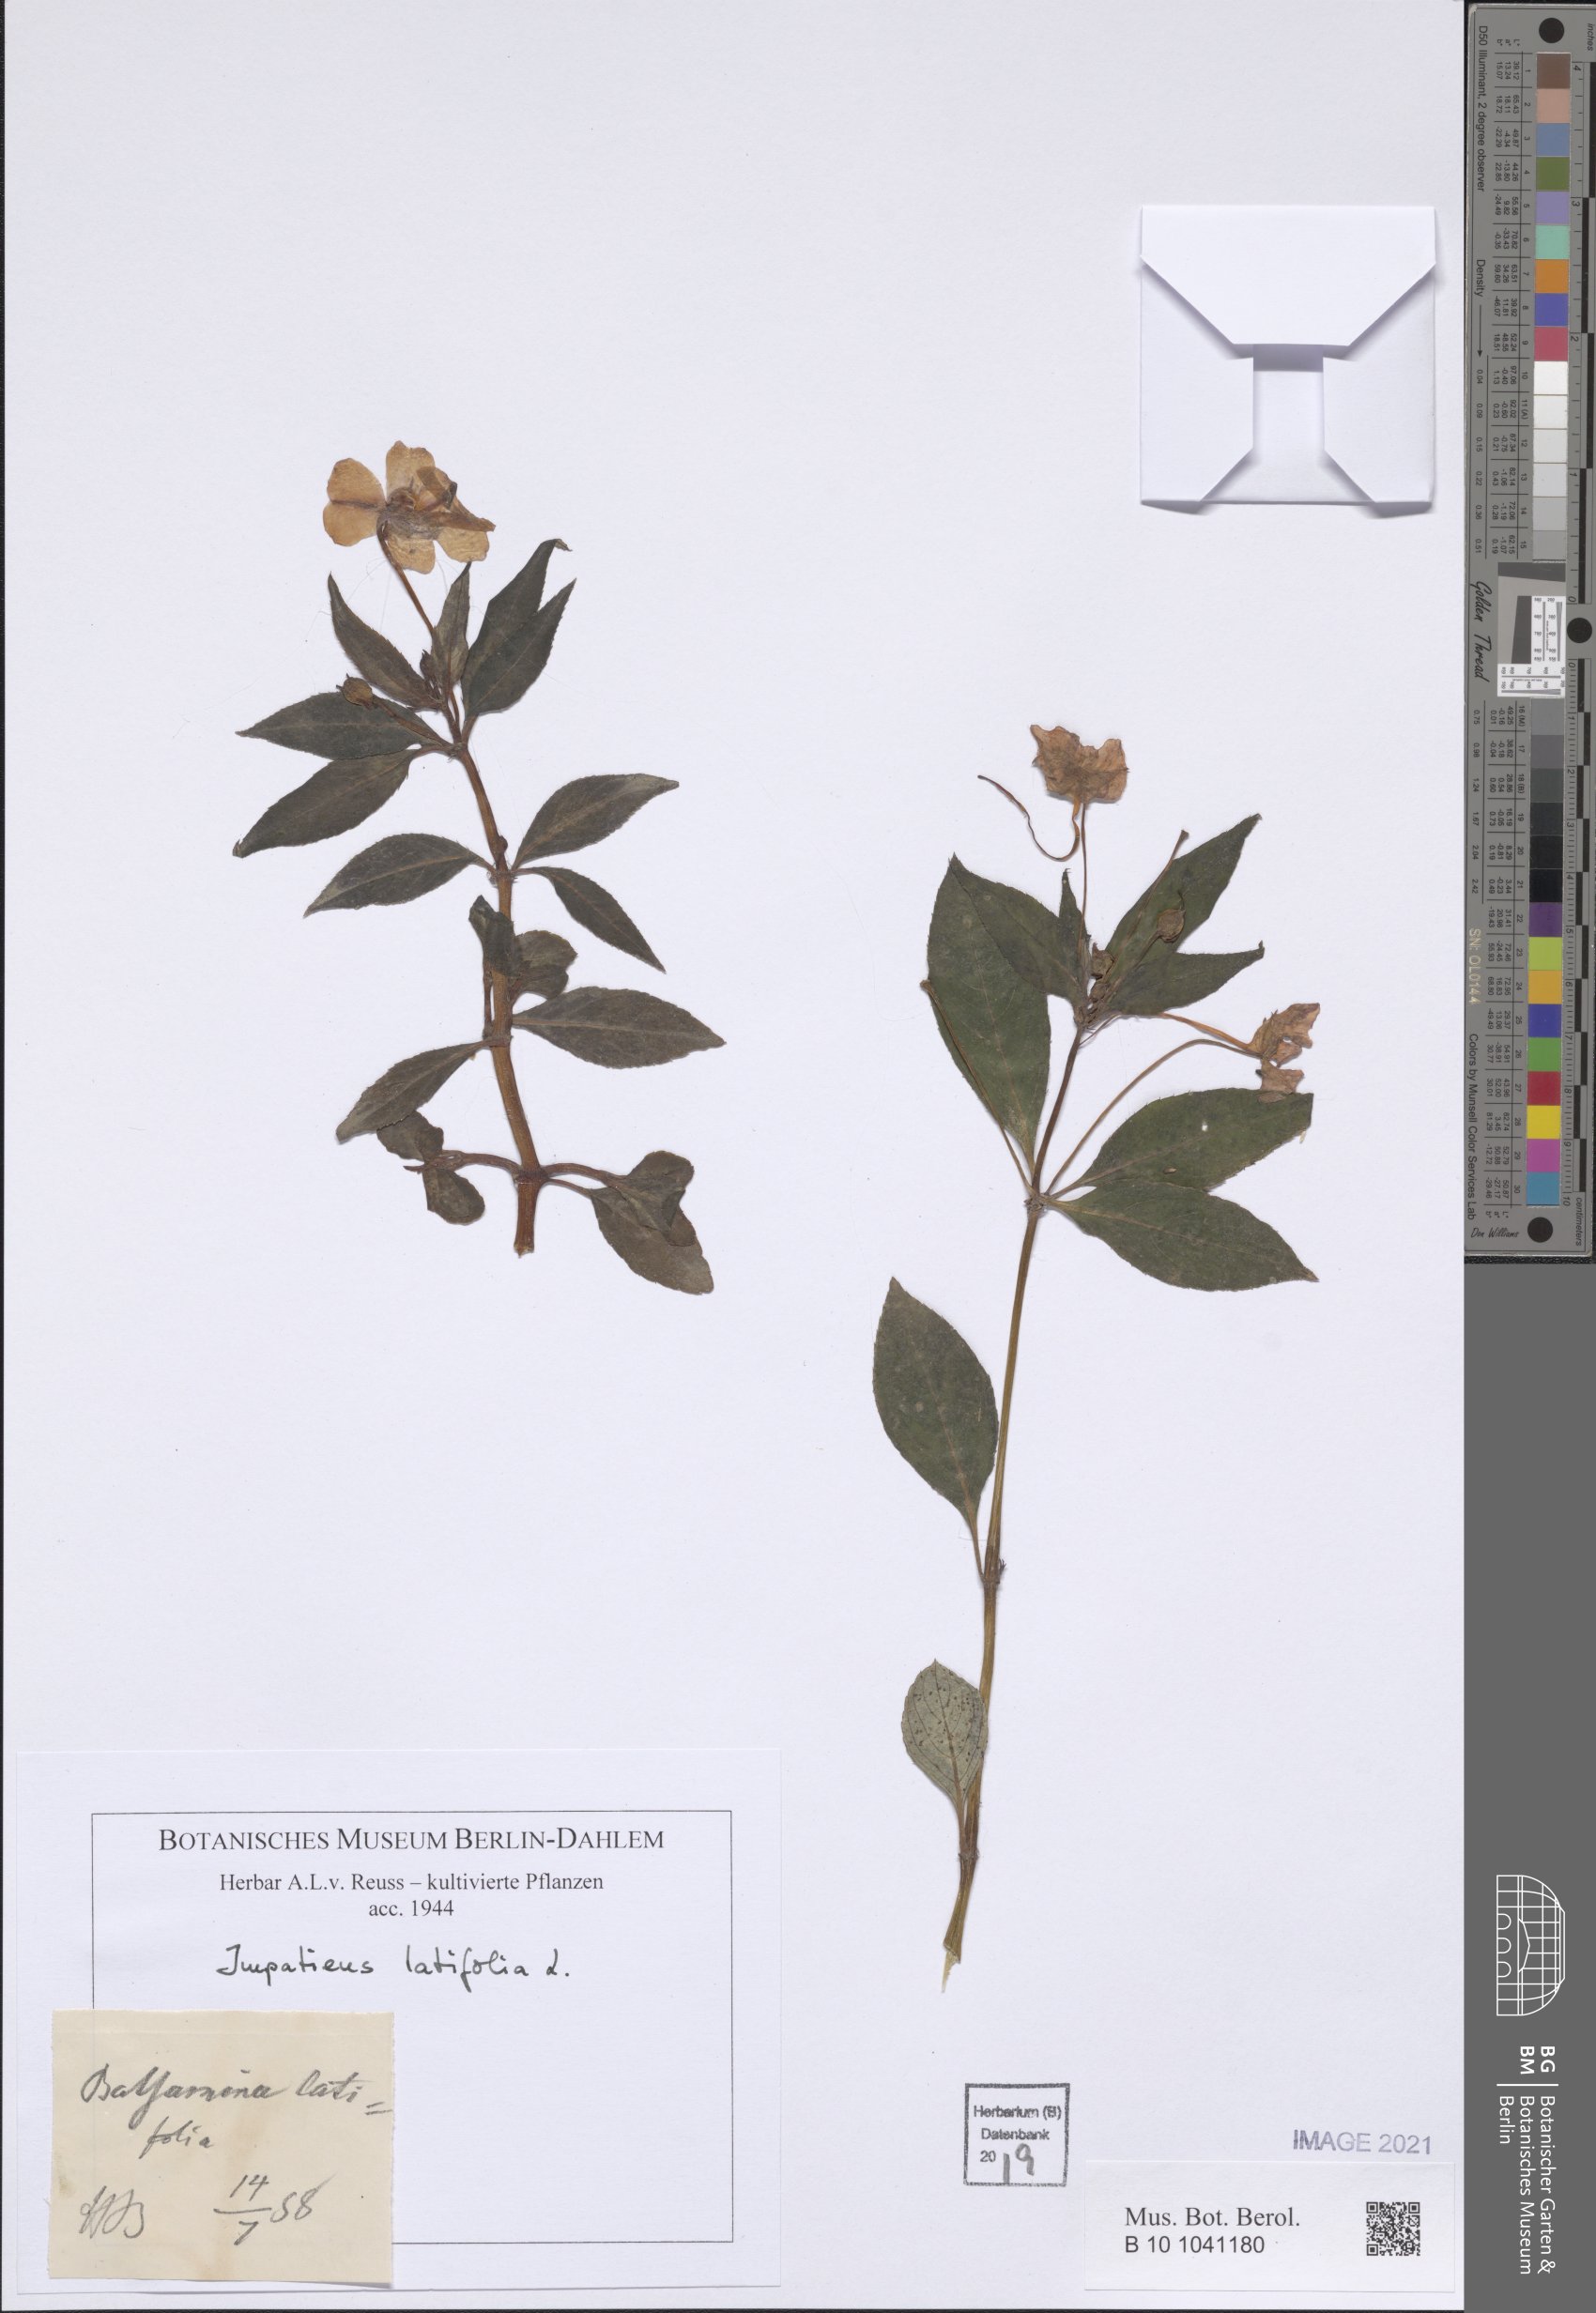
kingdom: Plantae
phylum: Tracheophyta
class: Magnoliopsida
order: Ericales
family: Balsaminaceae
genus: Impatiens
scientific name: Impatiens latifolia
